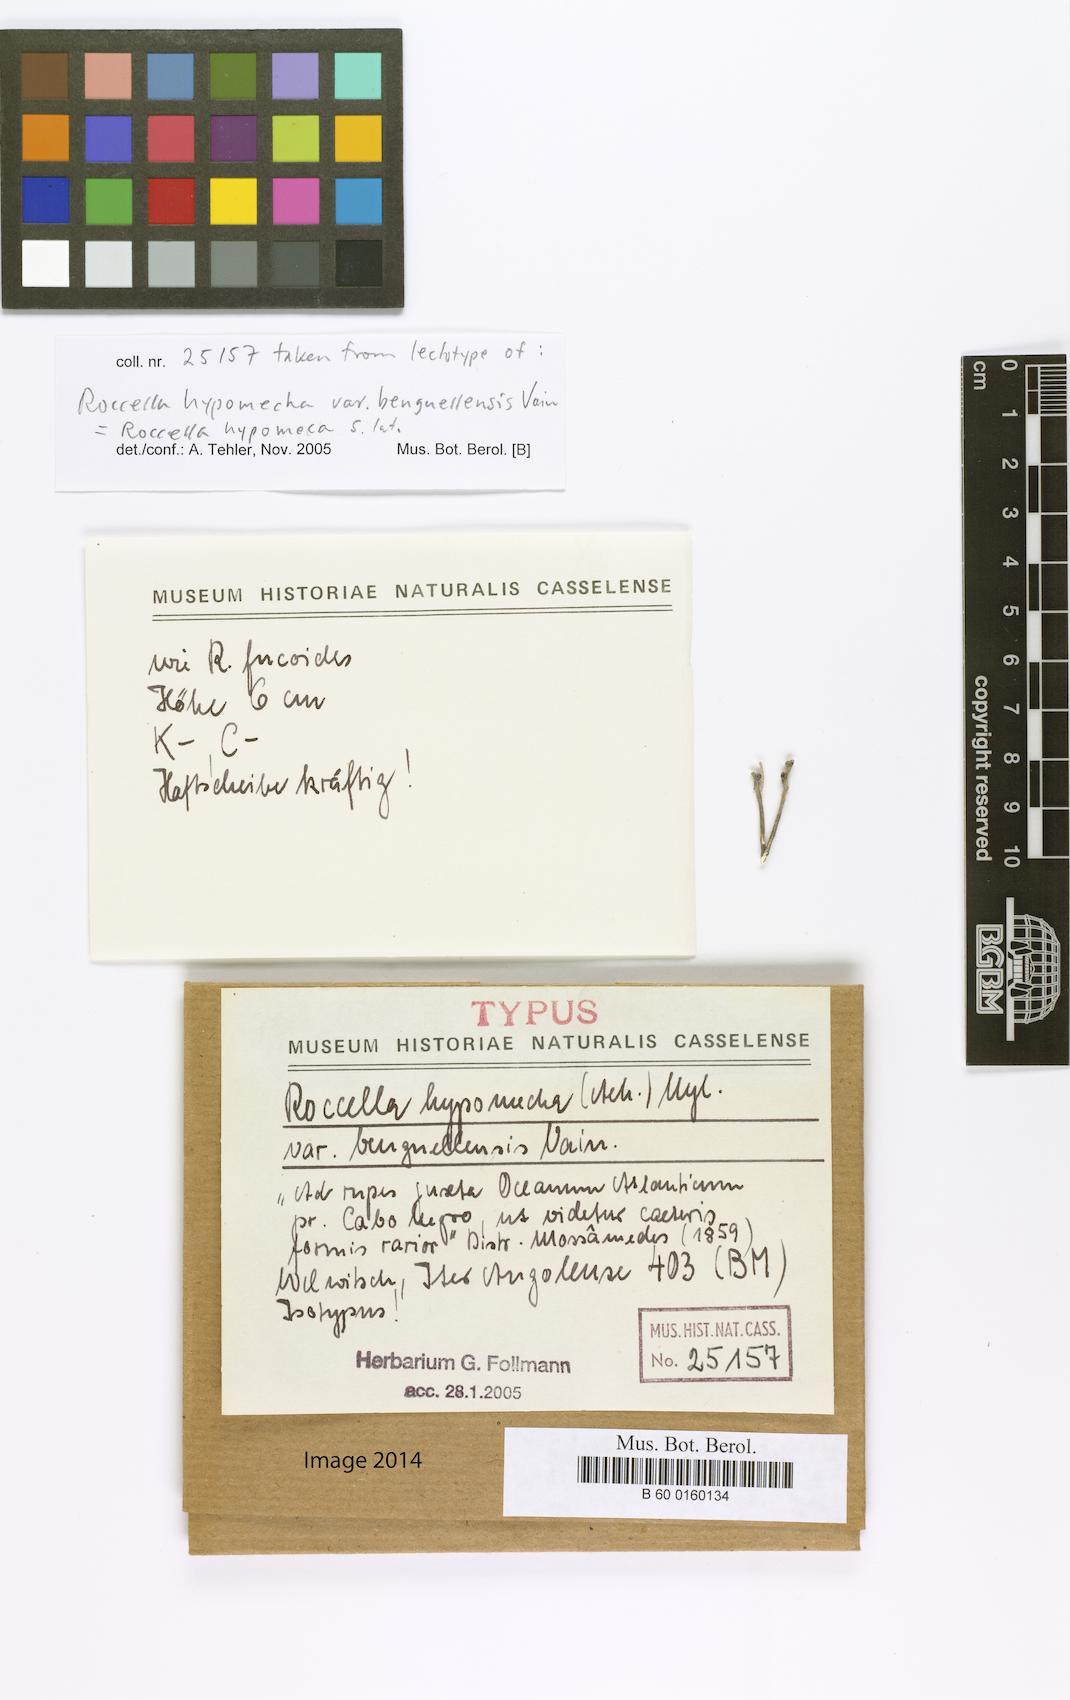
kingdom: Fungi
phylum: Ascomycota
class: Arthoniomycetes
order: Arthoniales
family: Roccellaceae
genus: Roccellina
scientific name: Roccellina hypomecha
